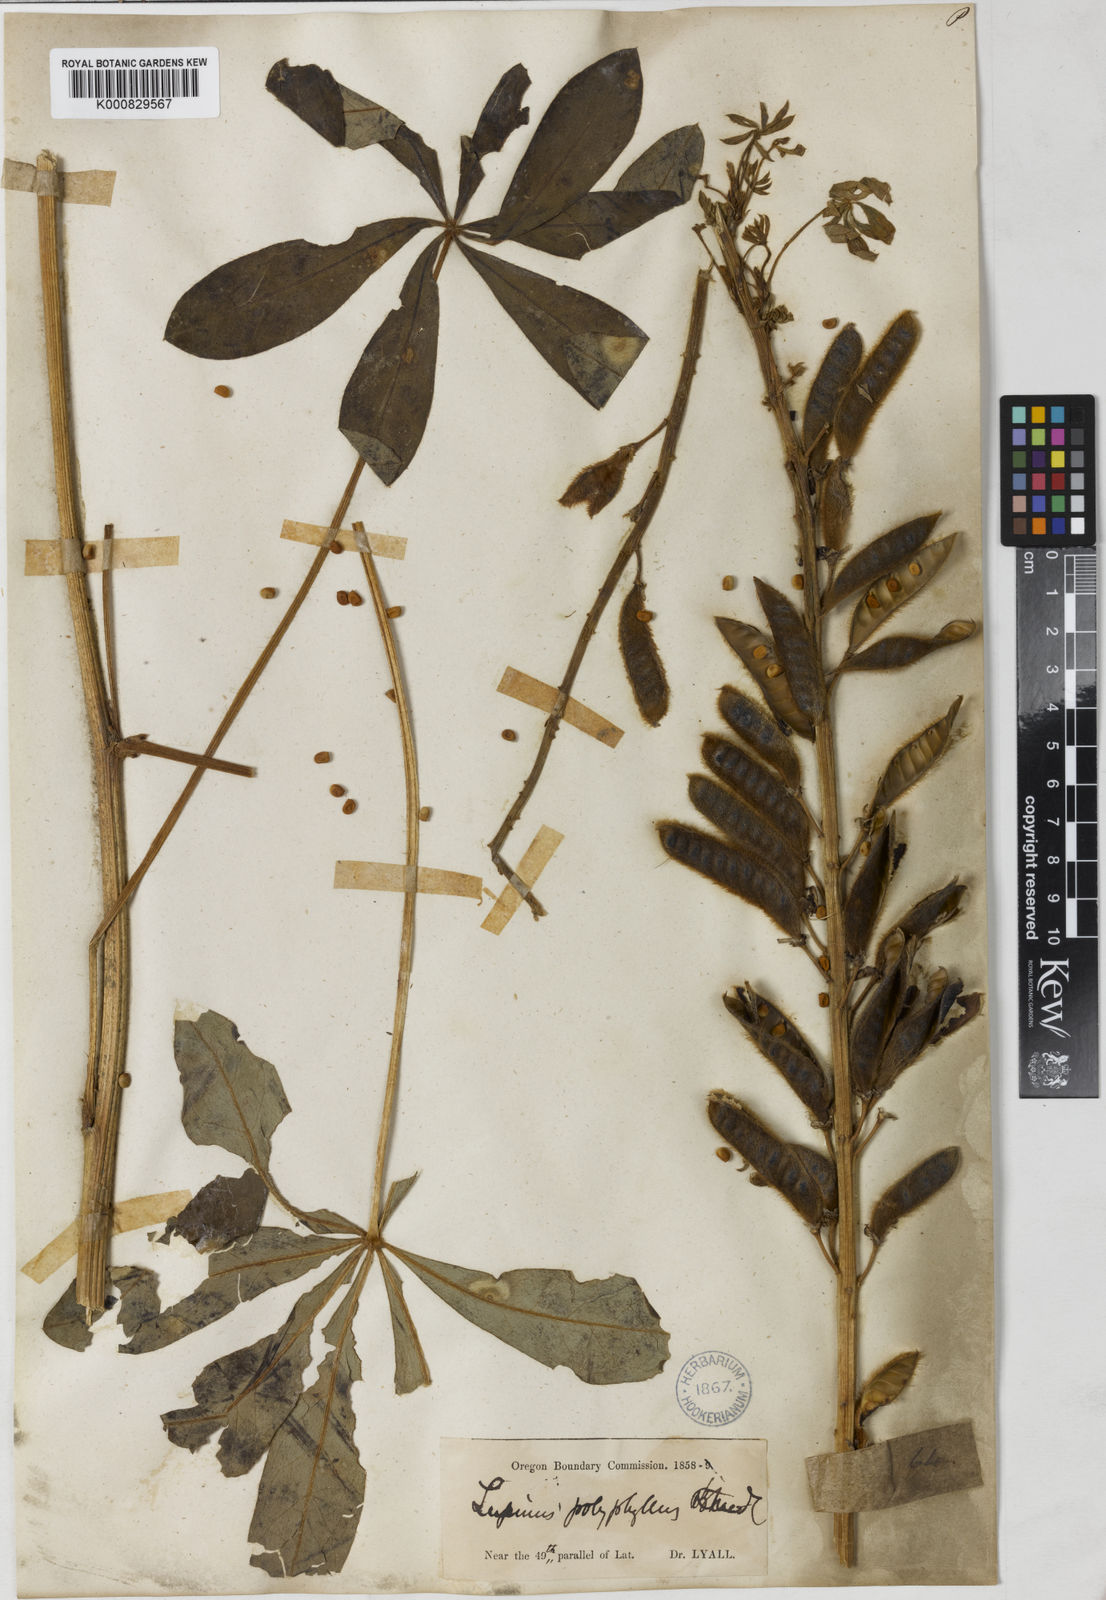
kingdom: Plantae
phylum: Tracheophyta
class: Magnoliopsida
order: Fabales
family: Fabaceae
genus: Lupinus
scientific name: Lupinus polyphyllus
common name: Garden lupin
